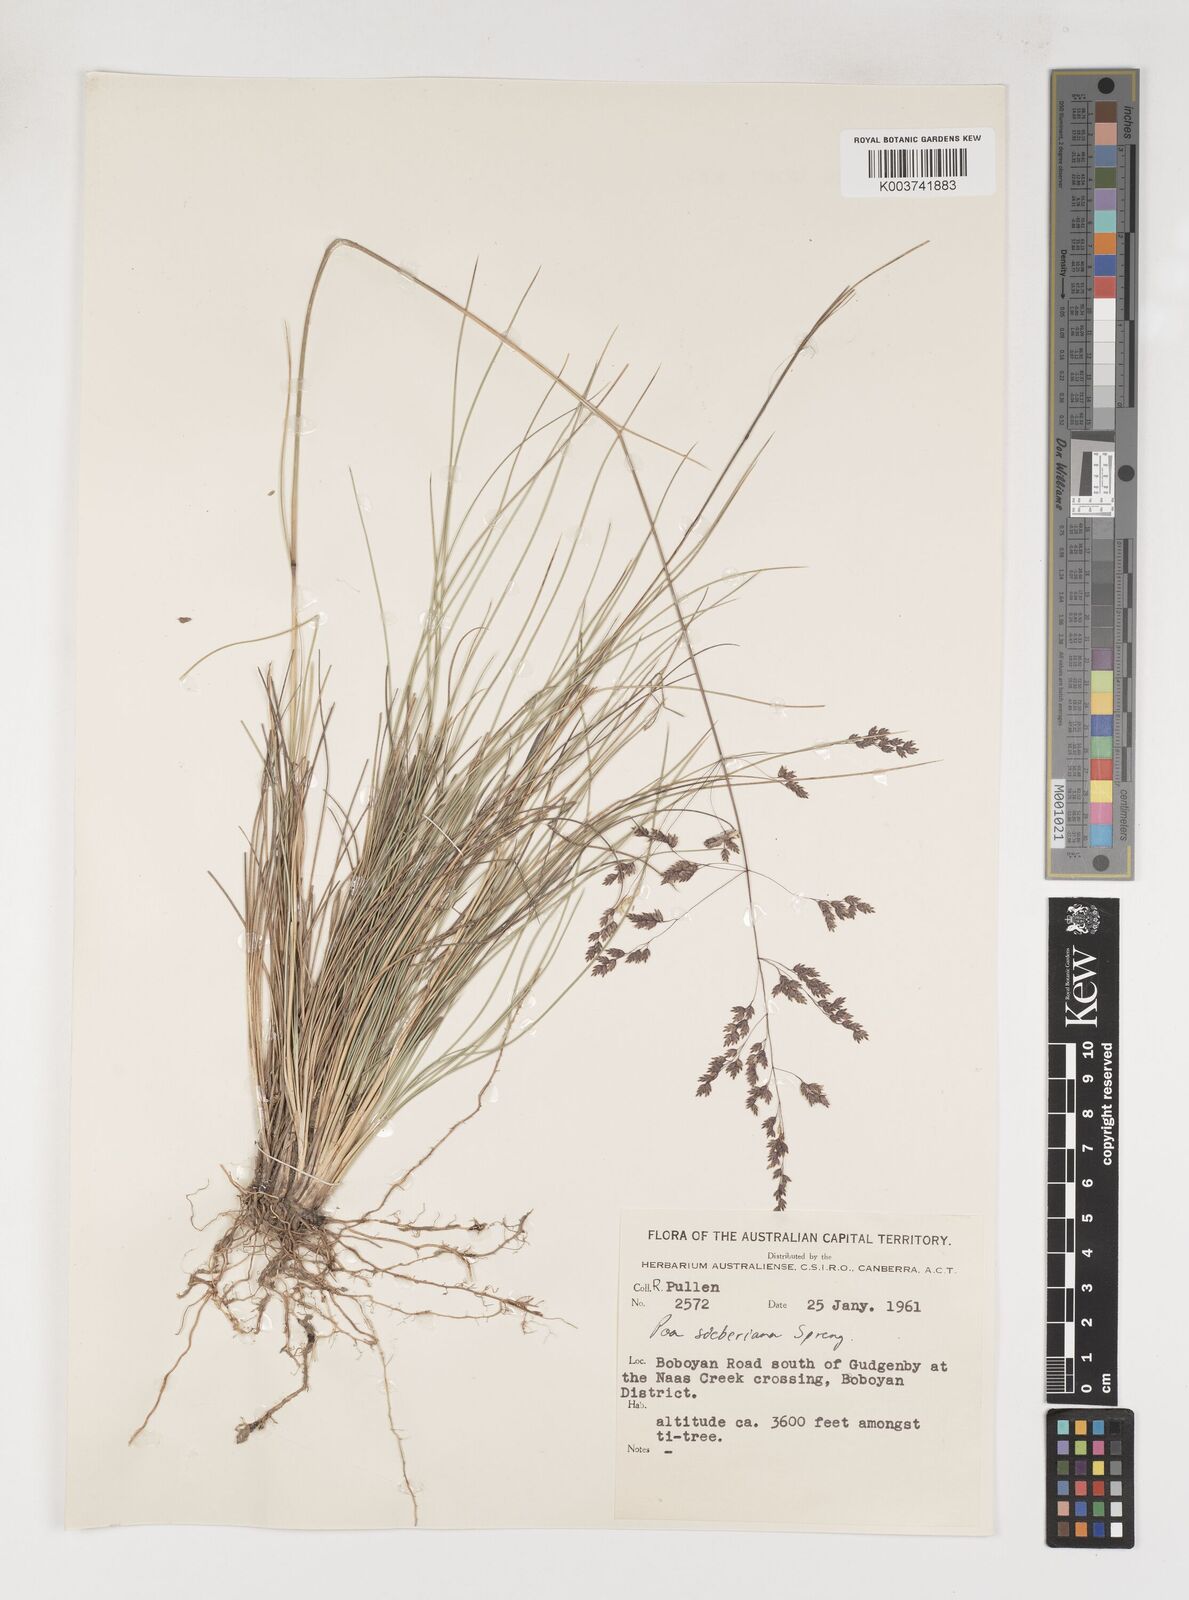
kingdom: Plantae
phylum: Tracheophyta
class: Liliopsida
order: Poales
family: Poaceae
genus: Poa
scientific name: Poa sieberiana
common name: Tussock poa
